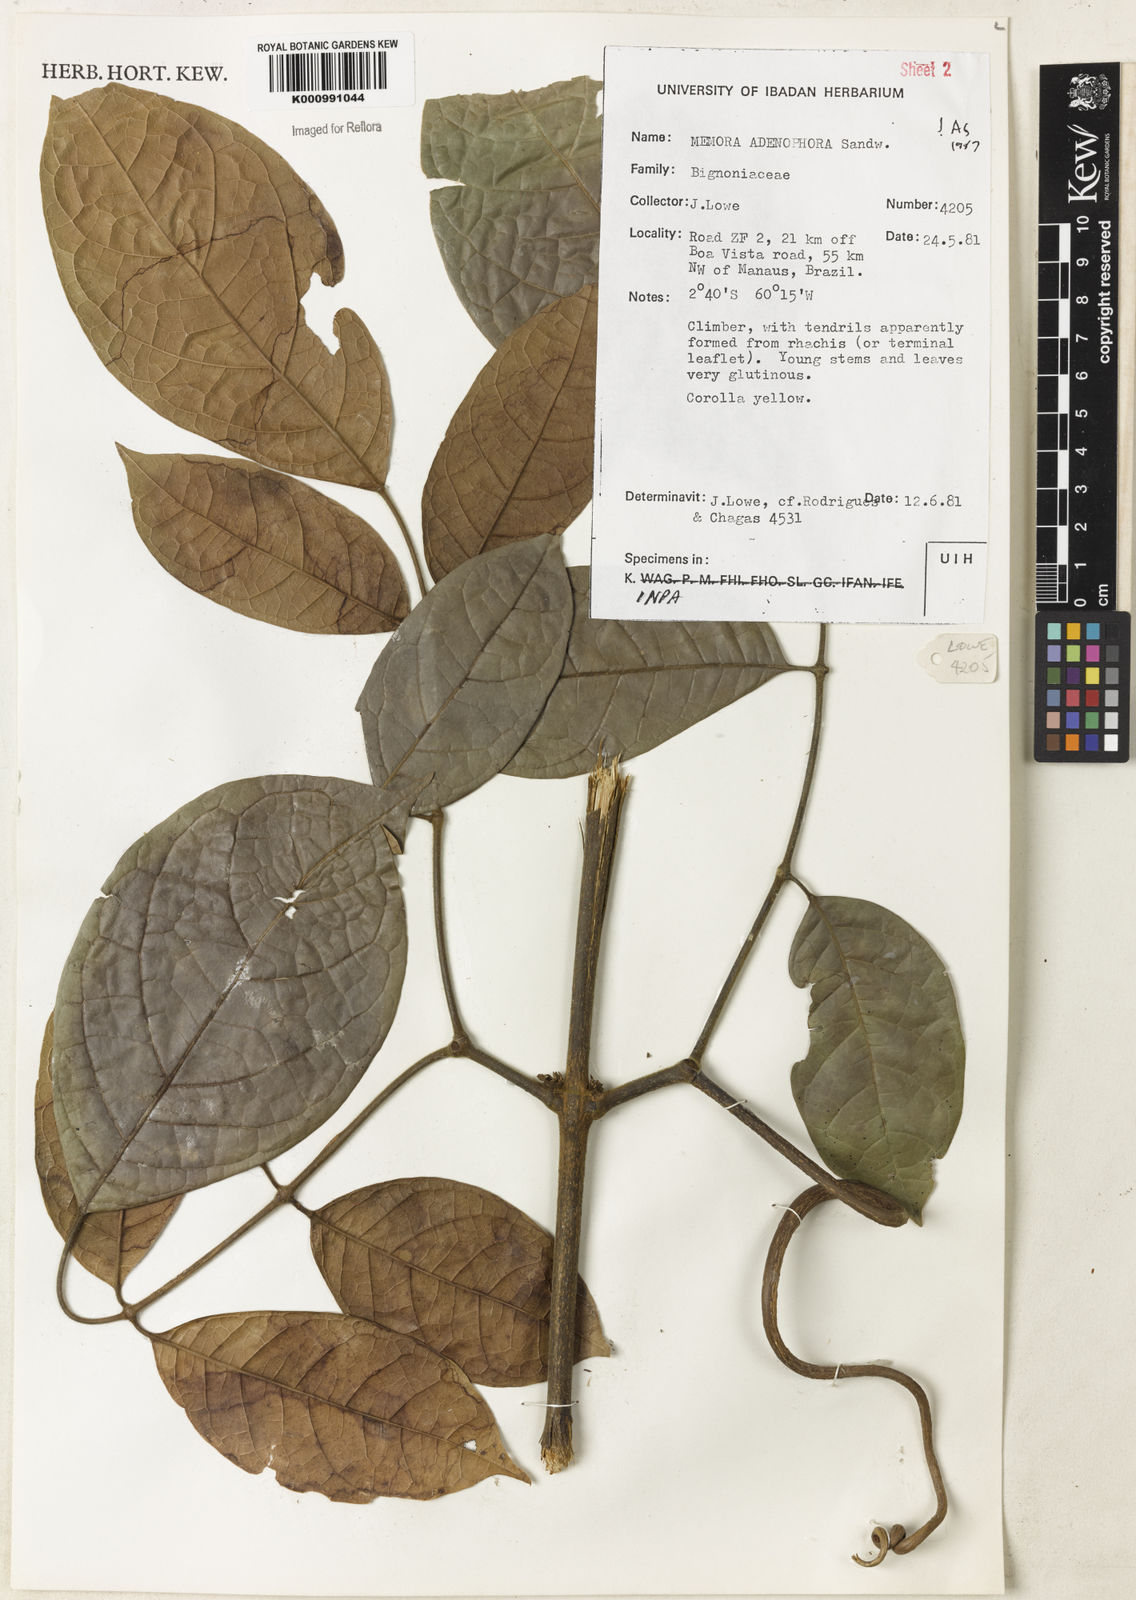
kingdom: Plantae
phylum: Tracheophyta
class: Magnoliopsida
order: Lamiales
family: Bignoniaceae
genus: Adenocalymma
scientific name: Adenocalymma adenophorum
